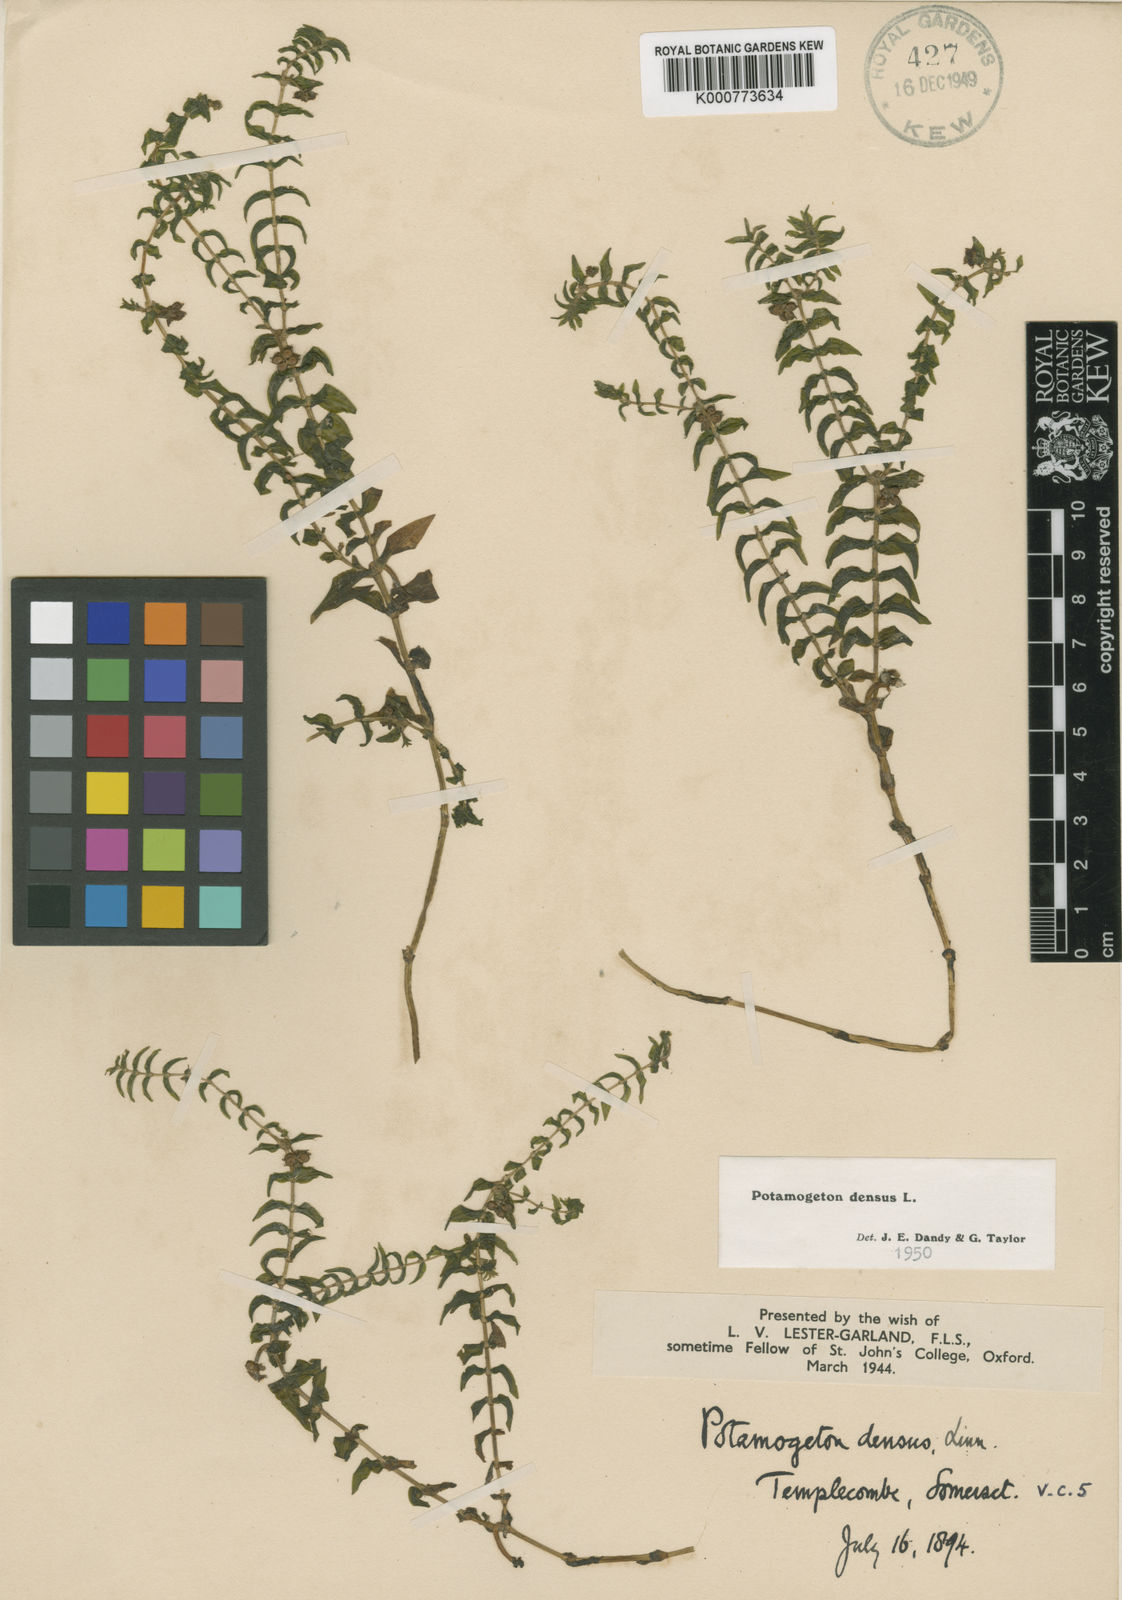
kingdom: Plantae
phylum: Tracheophyta
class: Liliopsida
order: Alismatales
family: Potamogetonaceae
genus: Groenlandia
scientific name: Groenlandia densa
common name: Opposite-leaved pondweed
